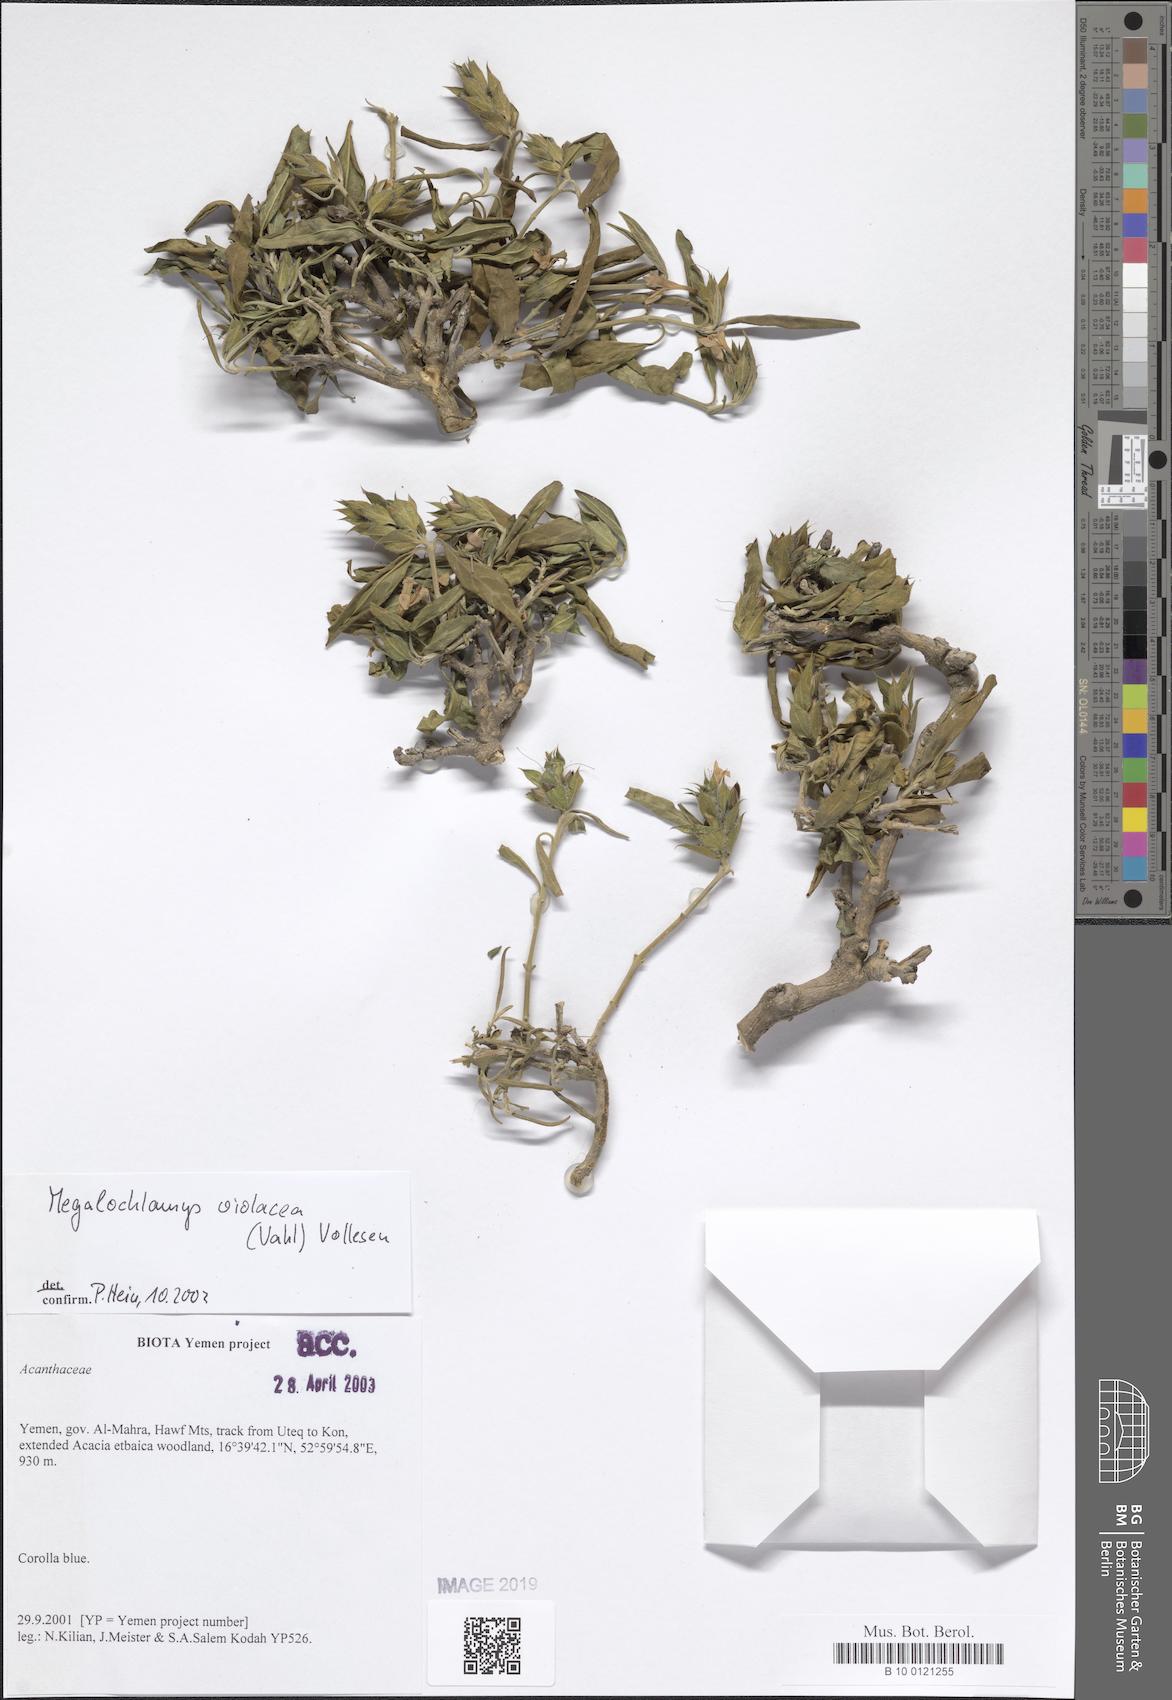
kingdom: Plantae
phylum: Tracheophyta
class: Magnoliopsida
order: Lamiales
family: Acanthaceae
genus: Megalochlamys
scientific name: Megalochlamys violacea
